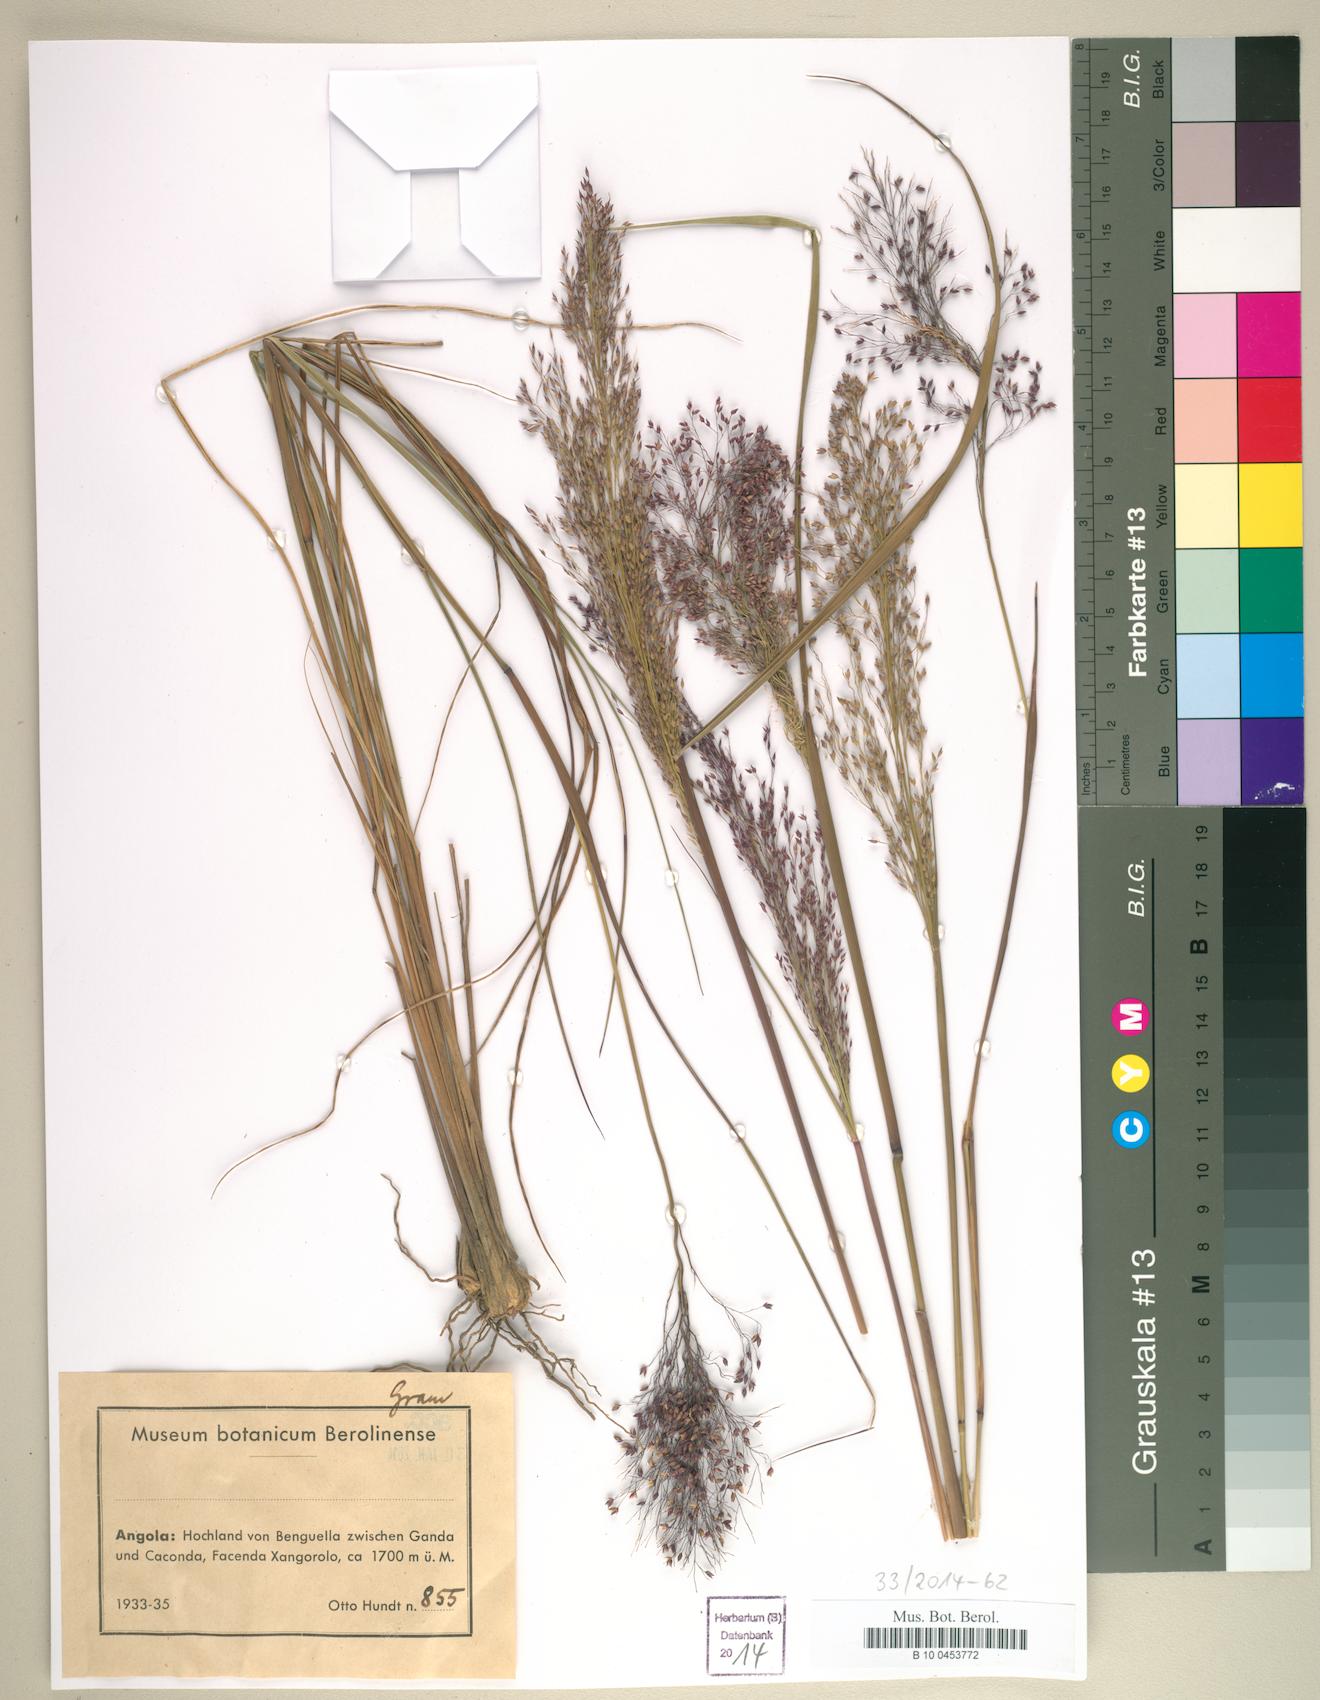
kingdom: Plantae
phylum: Tracheophyta
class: Liliopsida
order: Poales
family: Poaceae
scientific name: Poaceae
